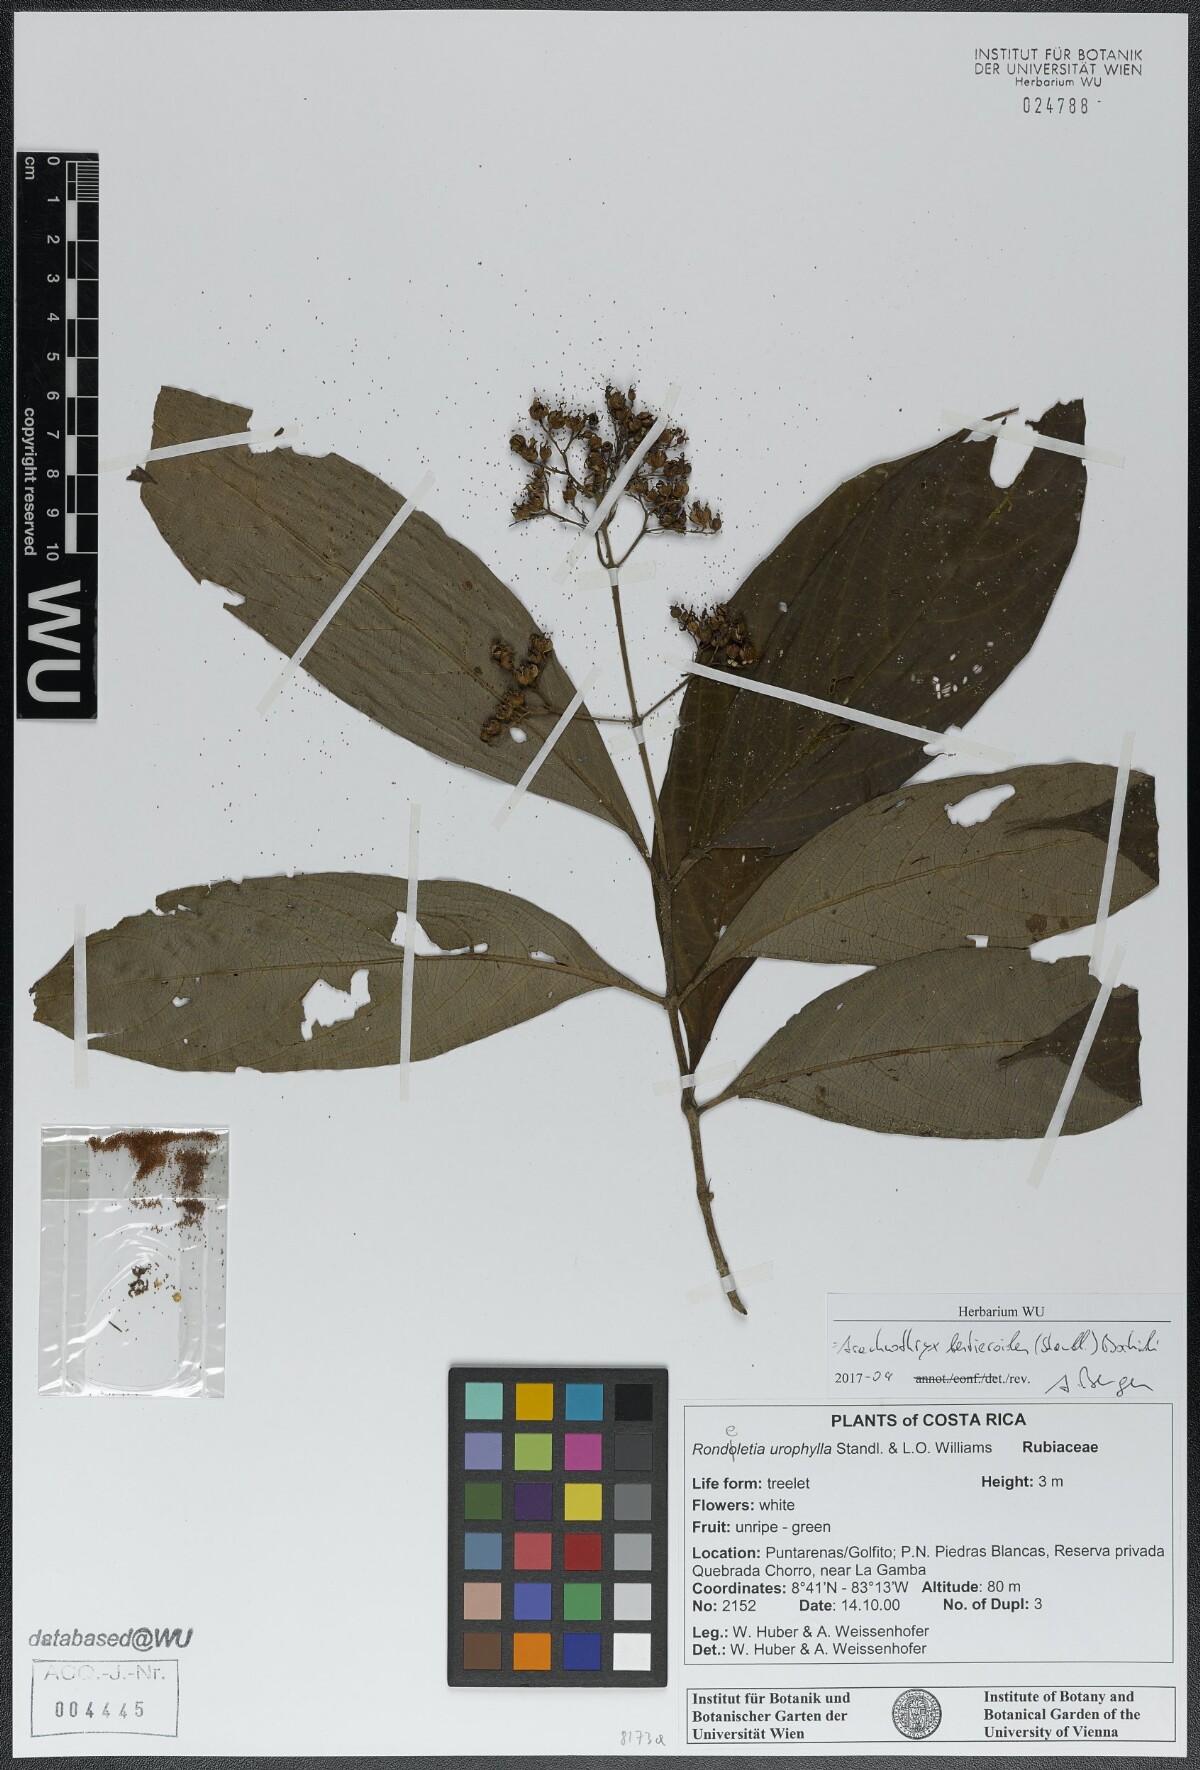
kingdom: Plantae
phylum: Tracheophyta
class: Magnoliopsida
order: Gentianales
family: Rubiaceae
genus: Arachnothryx
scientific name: Arachnothryx bertieroides
